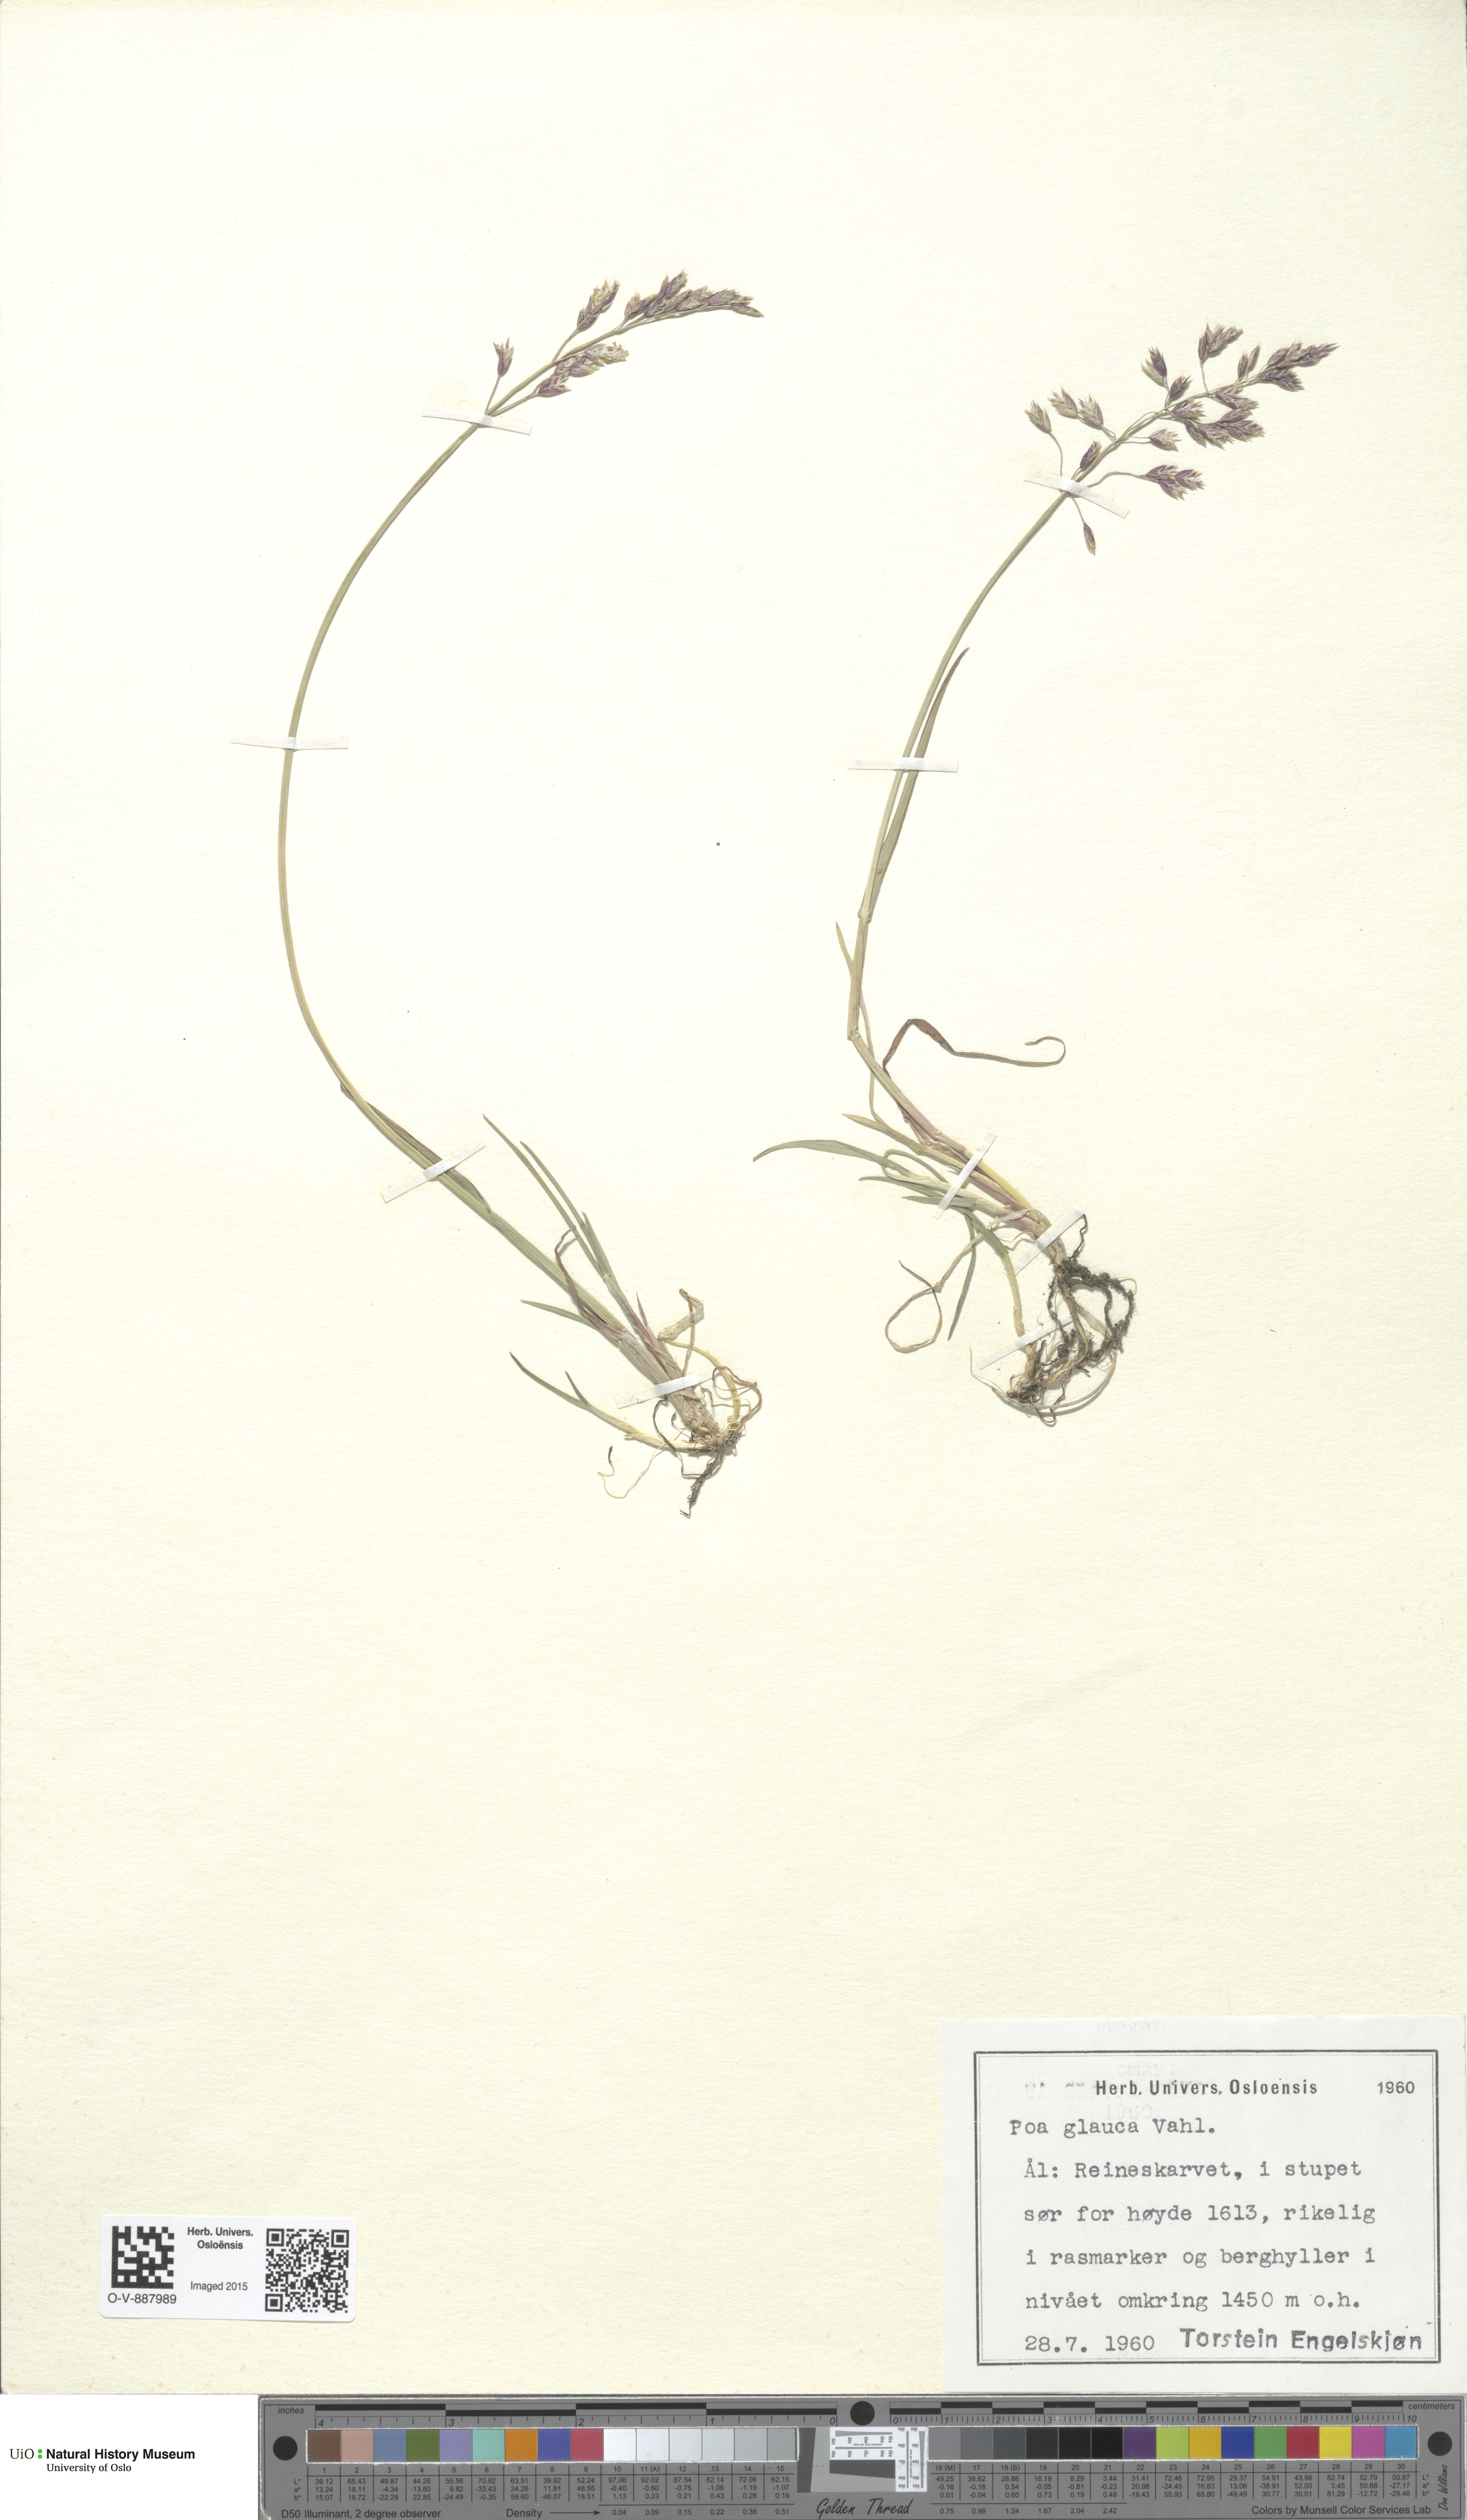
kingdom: Plantae
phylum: Tracheophyta
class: Liliopsida
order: Poales
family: Poaceae
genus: Poa
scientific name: Poa glauca
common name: Glaucous bluegrass
